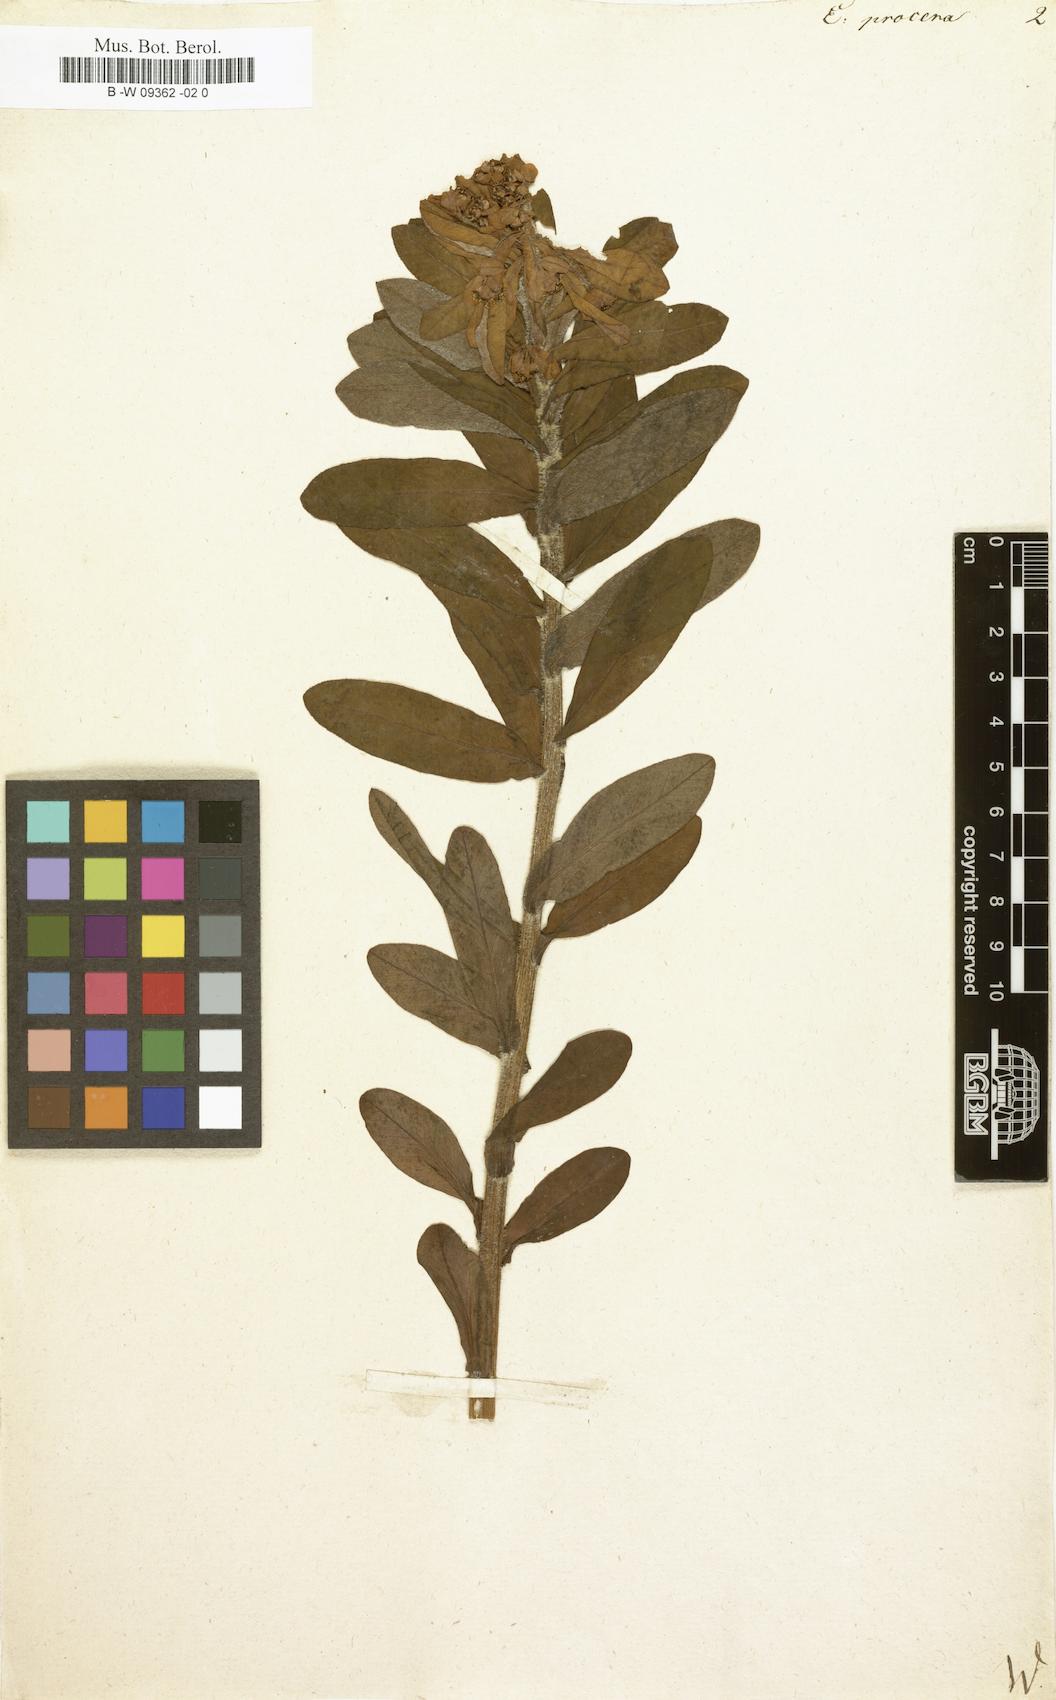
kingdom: Plantae
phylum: Tracheophyta
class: Magnoliopsida
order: Malpighiales
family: Euphorbiaceae
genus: Euphorbia
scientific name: Euphorbia procera
